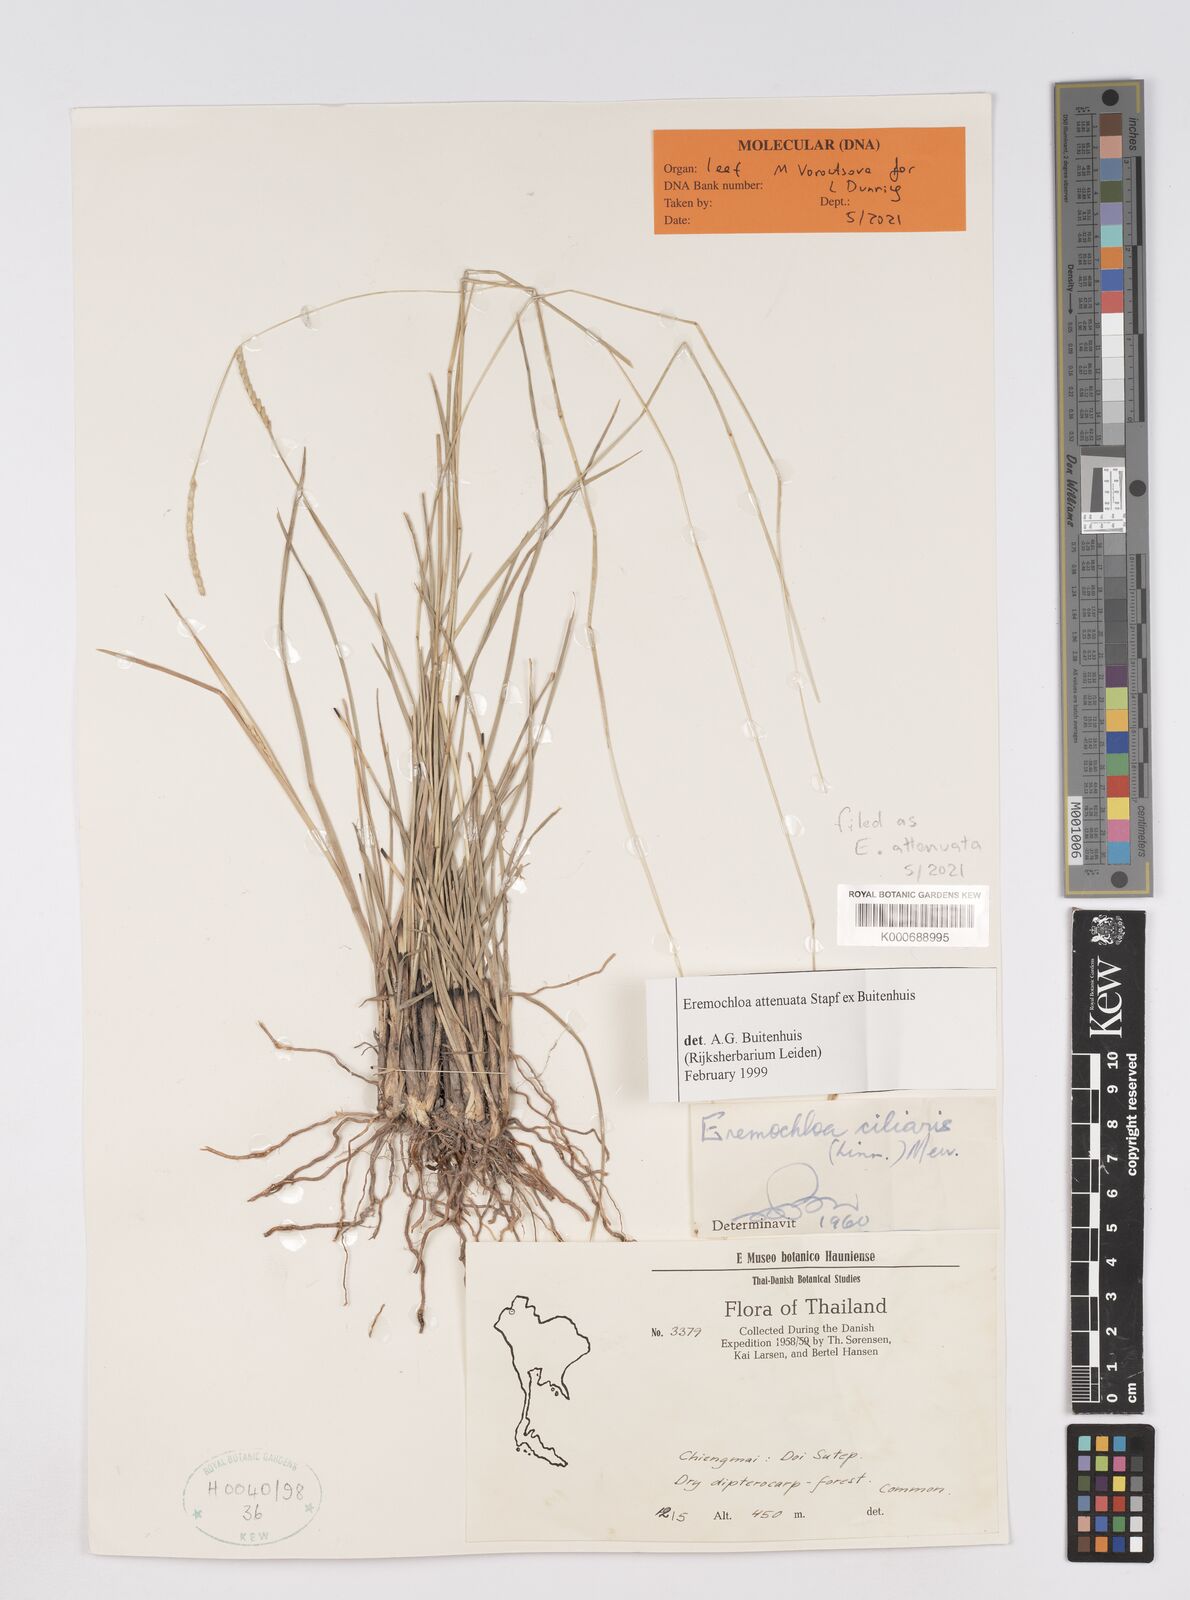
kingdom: Plantae
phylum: Tracheophyta
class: Liliopsida
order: Poales
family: Poaceae
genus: Eremochloa
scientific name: Eremochloa attenuata
